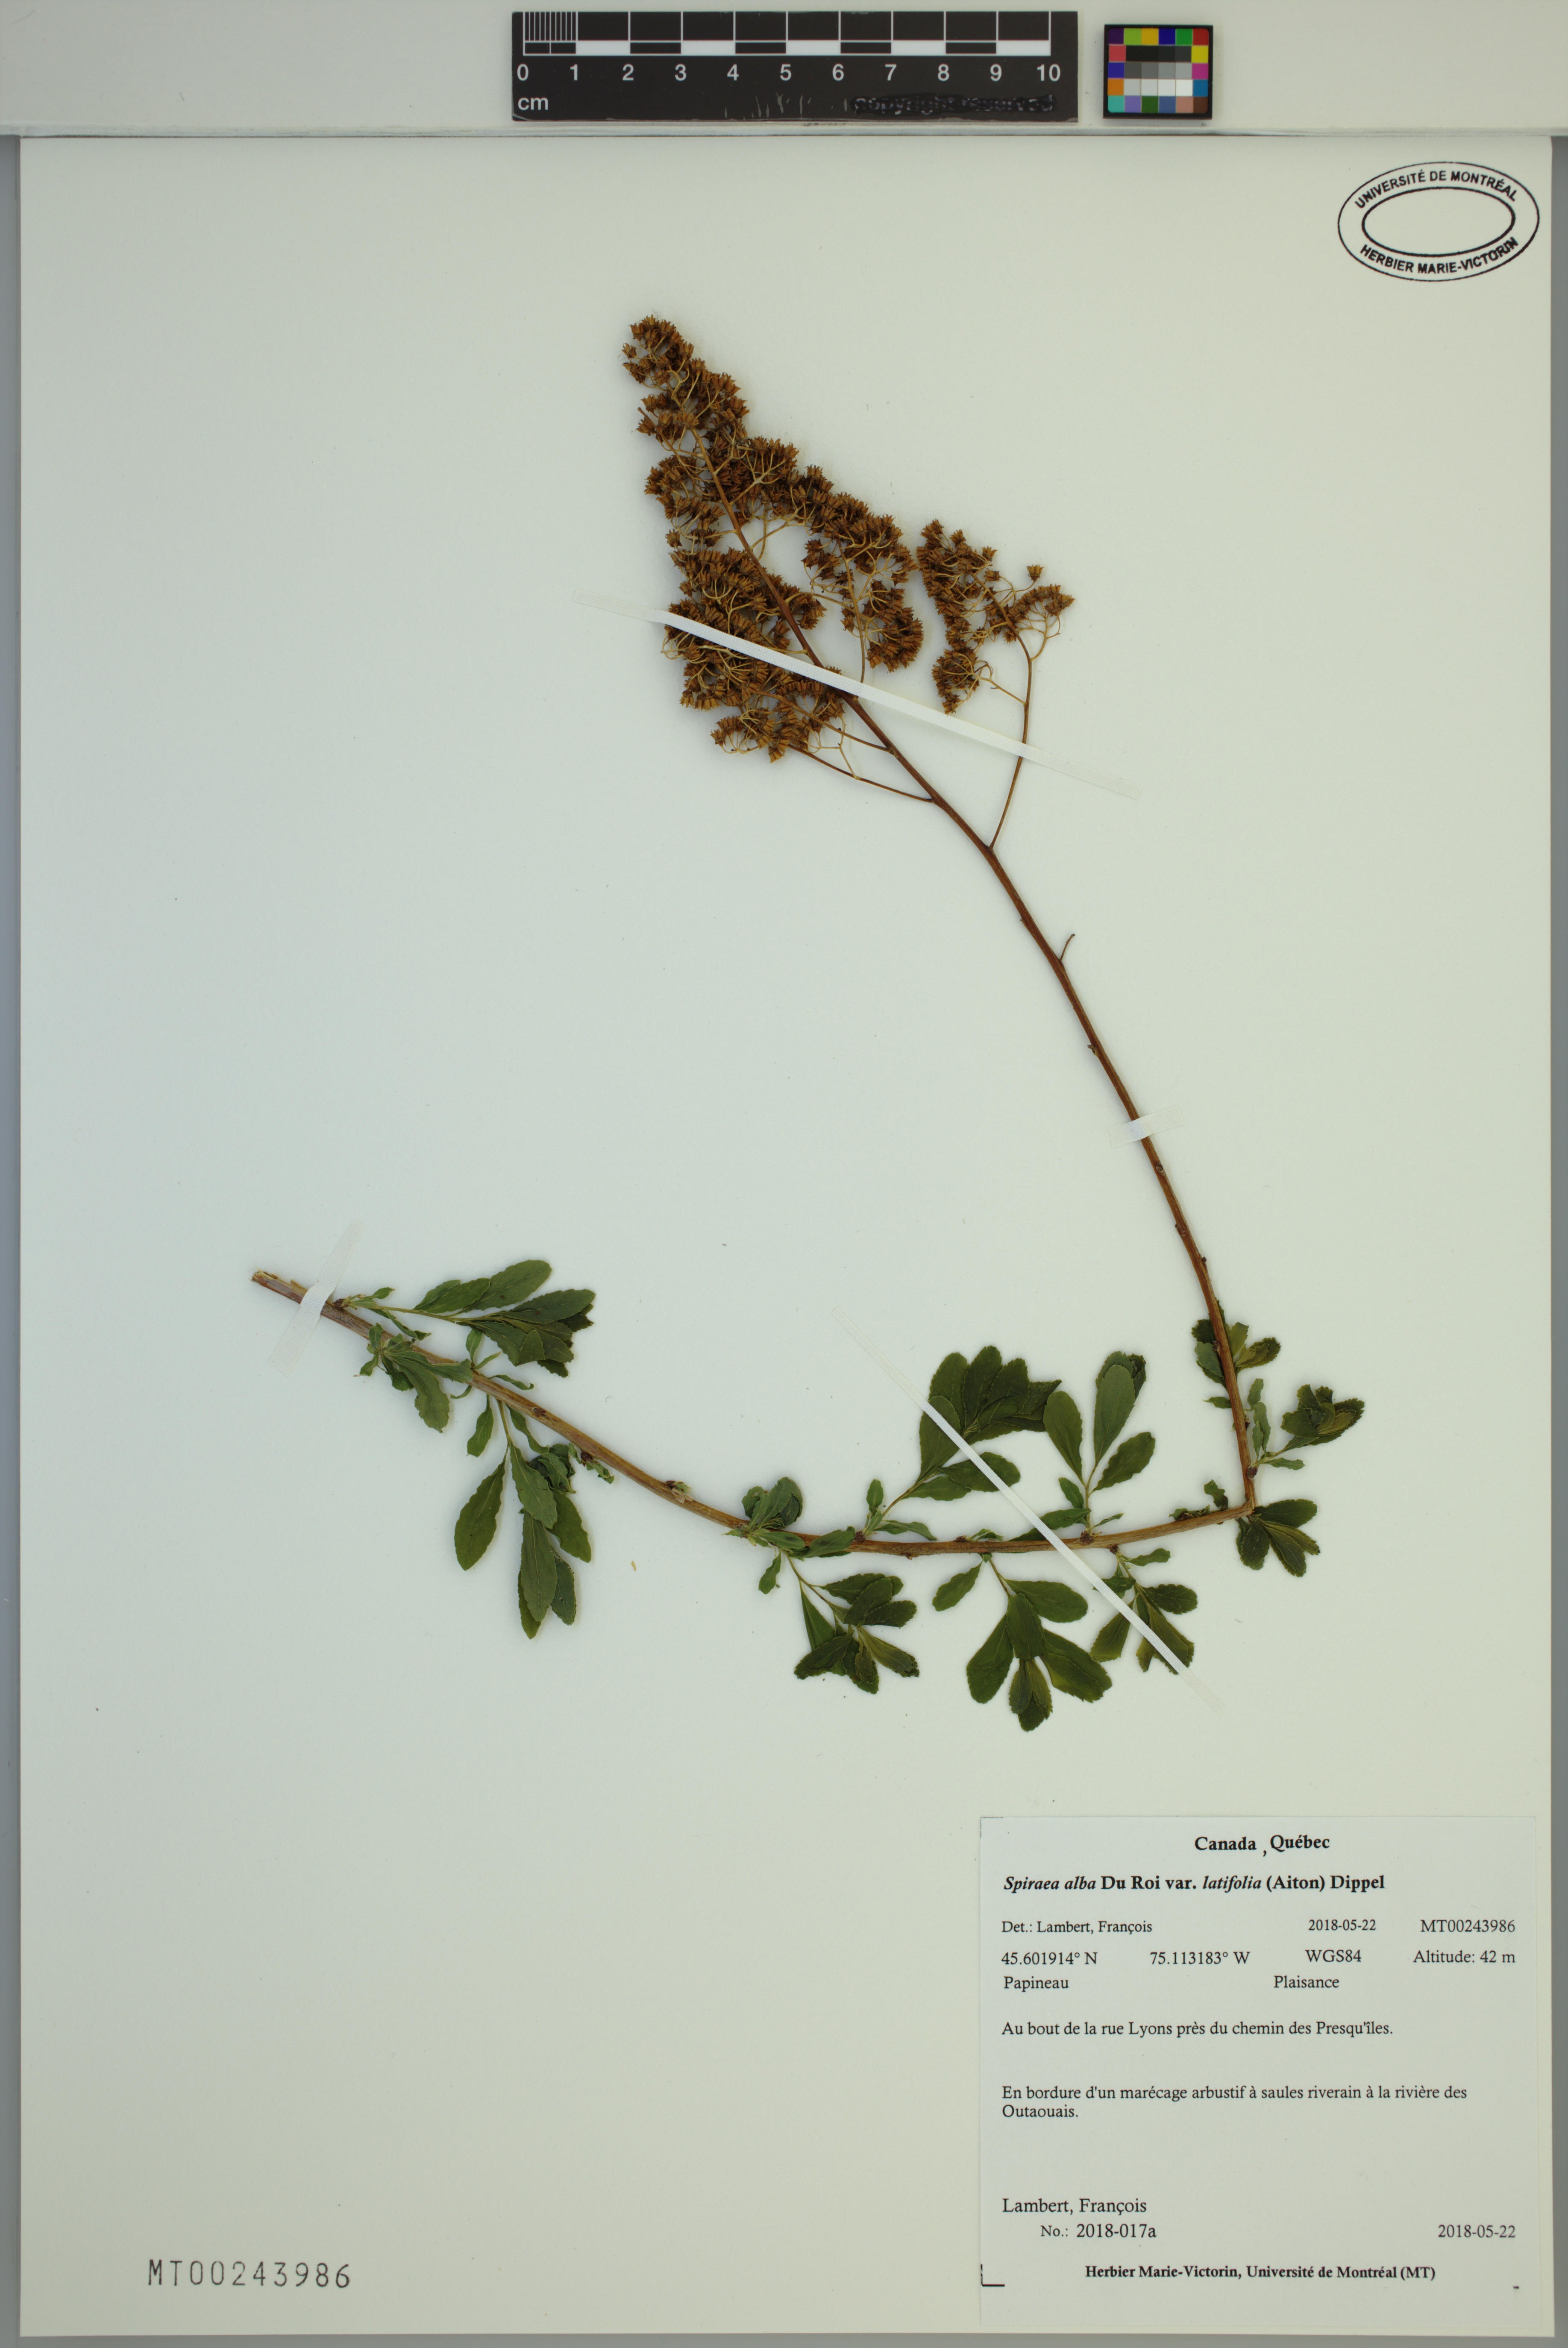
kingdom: Plantae
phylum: Tracheophyta
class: Magnoliopsida
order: Rosales
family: Rosaceae
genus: Spiraea
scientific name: Spiraea alba
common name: Pale bridewort
